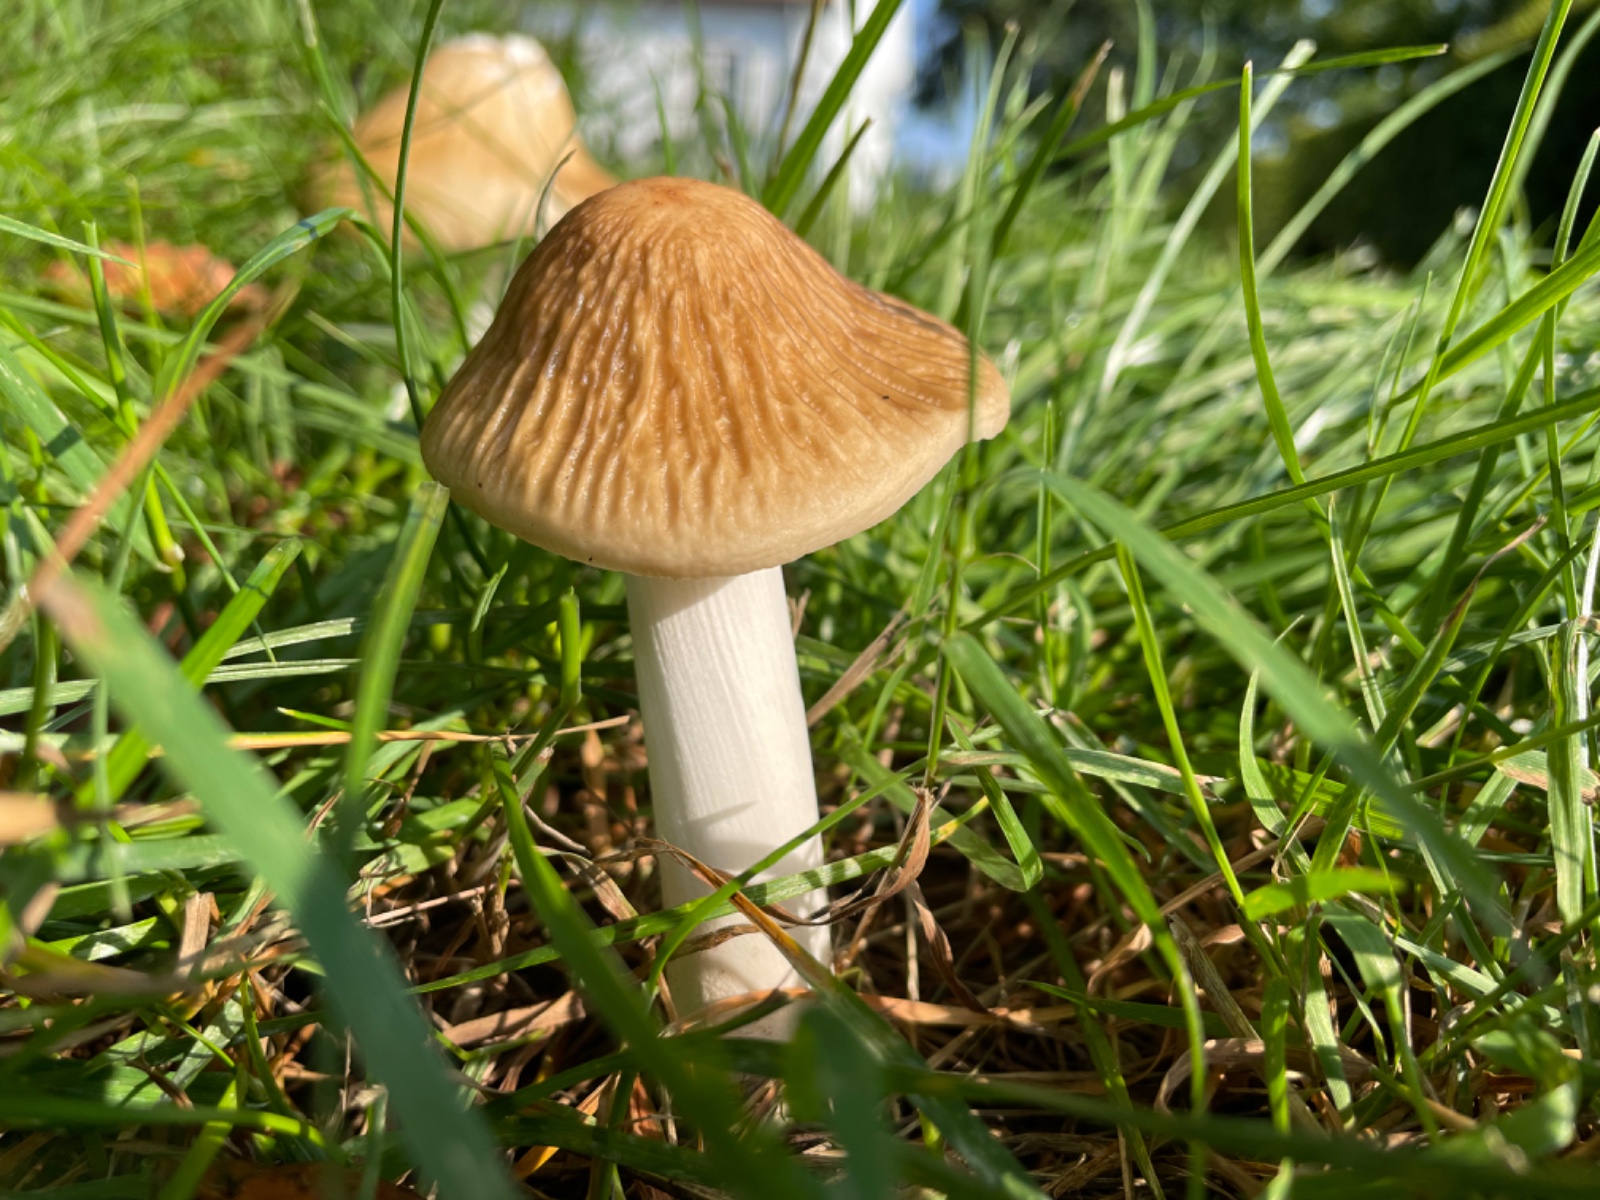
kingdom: Fungi
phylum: Basidiomycota
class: Agaricomycetes
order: Agaricales
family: Physalacriaceae
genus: Hymenopellis
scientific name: Hymenopellis radicata
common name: almindelig pælerodshat
